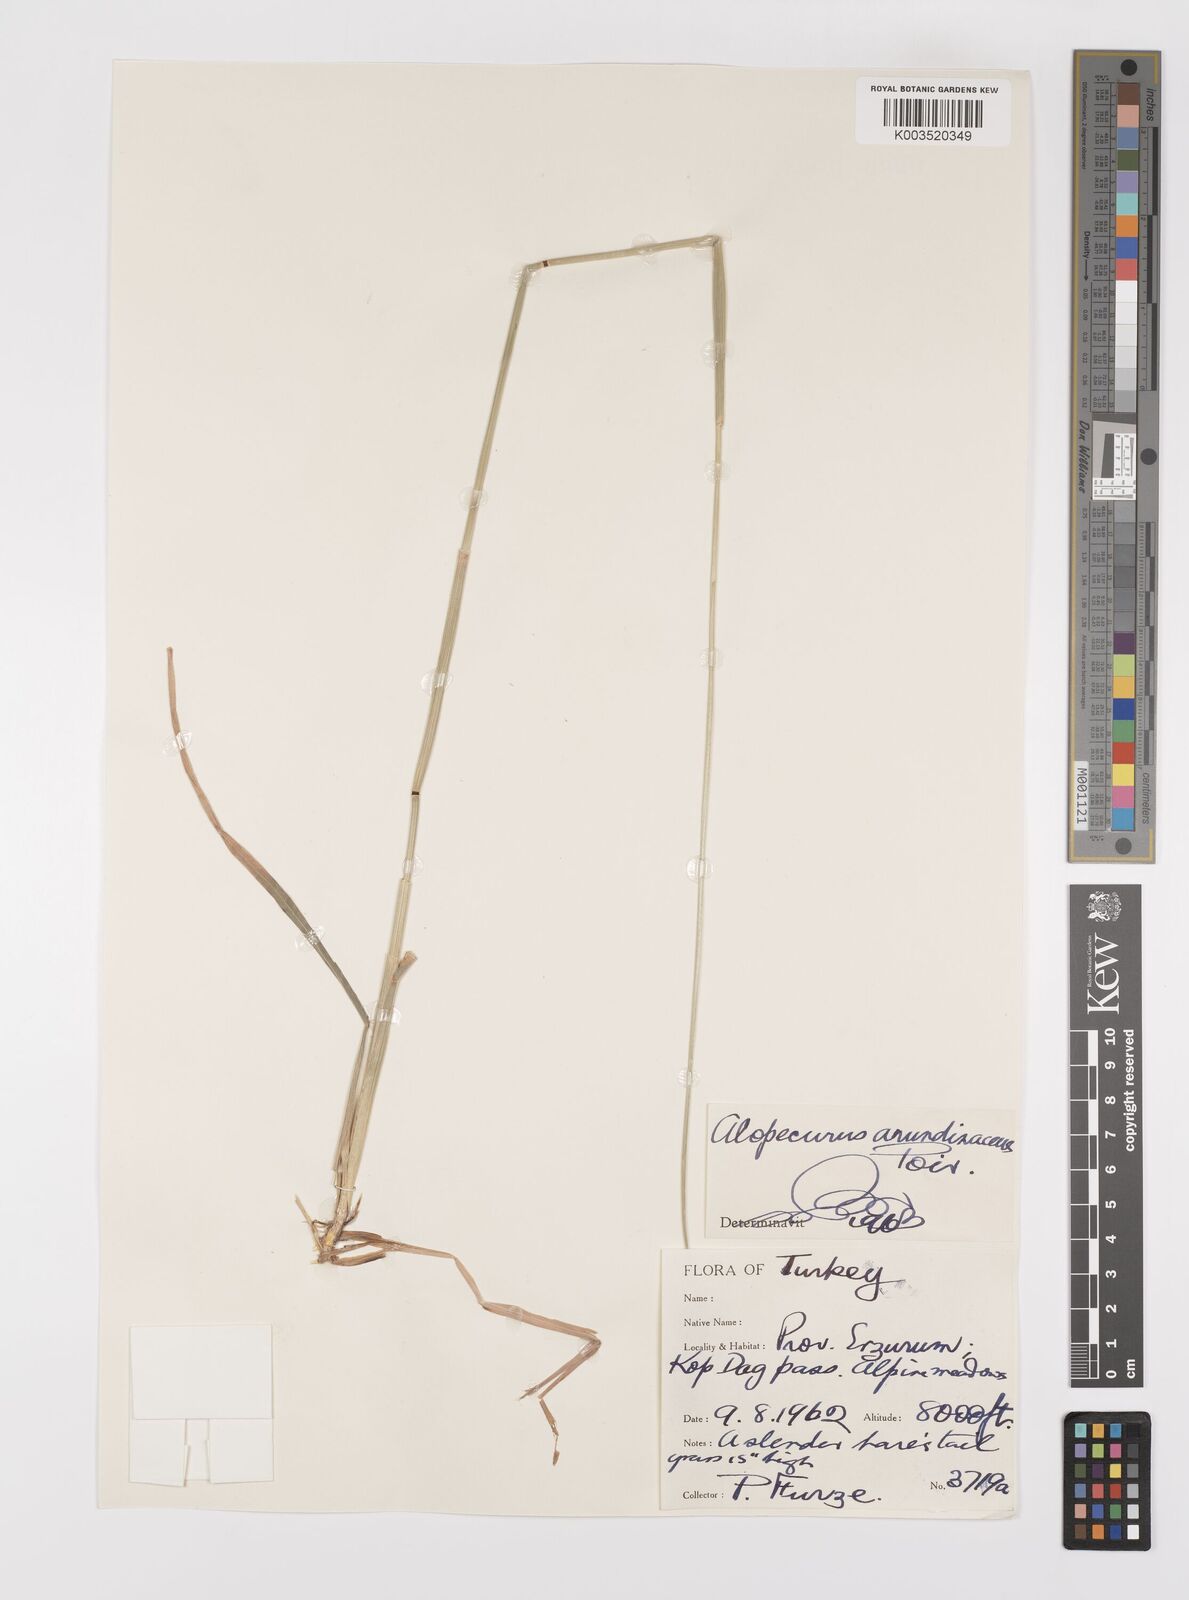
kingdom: Plantae
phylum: Tracheophyta
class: Liliopsida
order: Poales
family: Poaceae
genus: Alopecurus
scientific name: Alopecurus arundinaceus
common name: Creeping meadow foxtail
